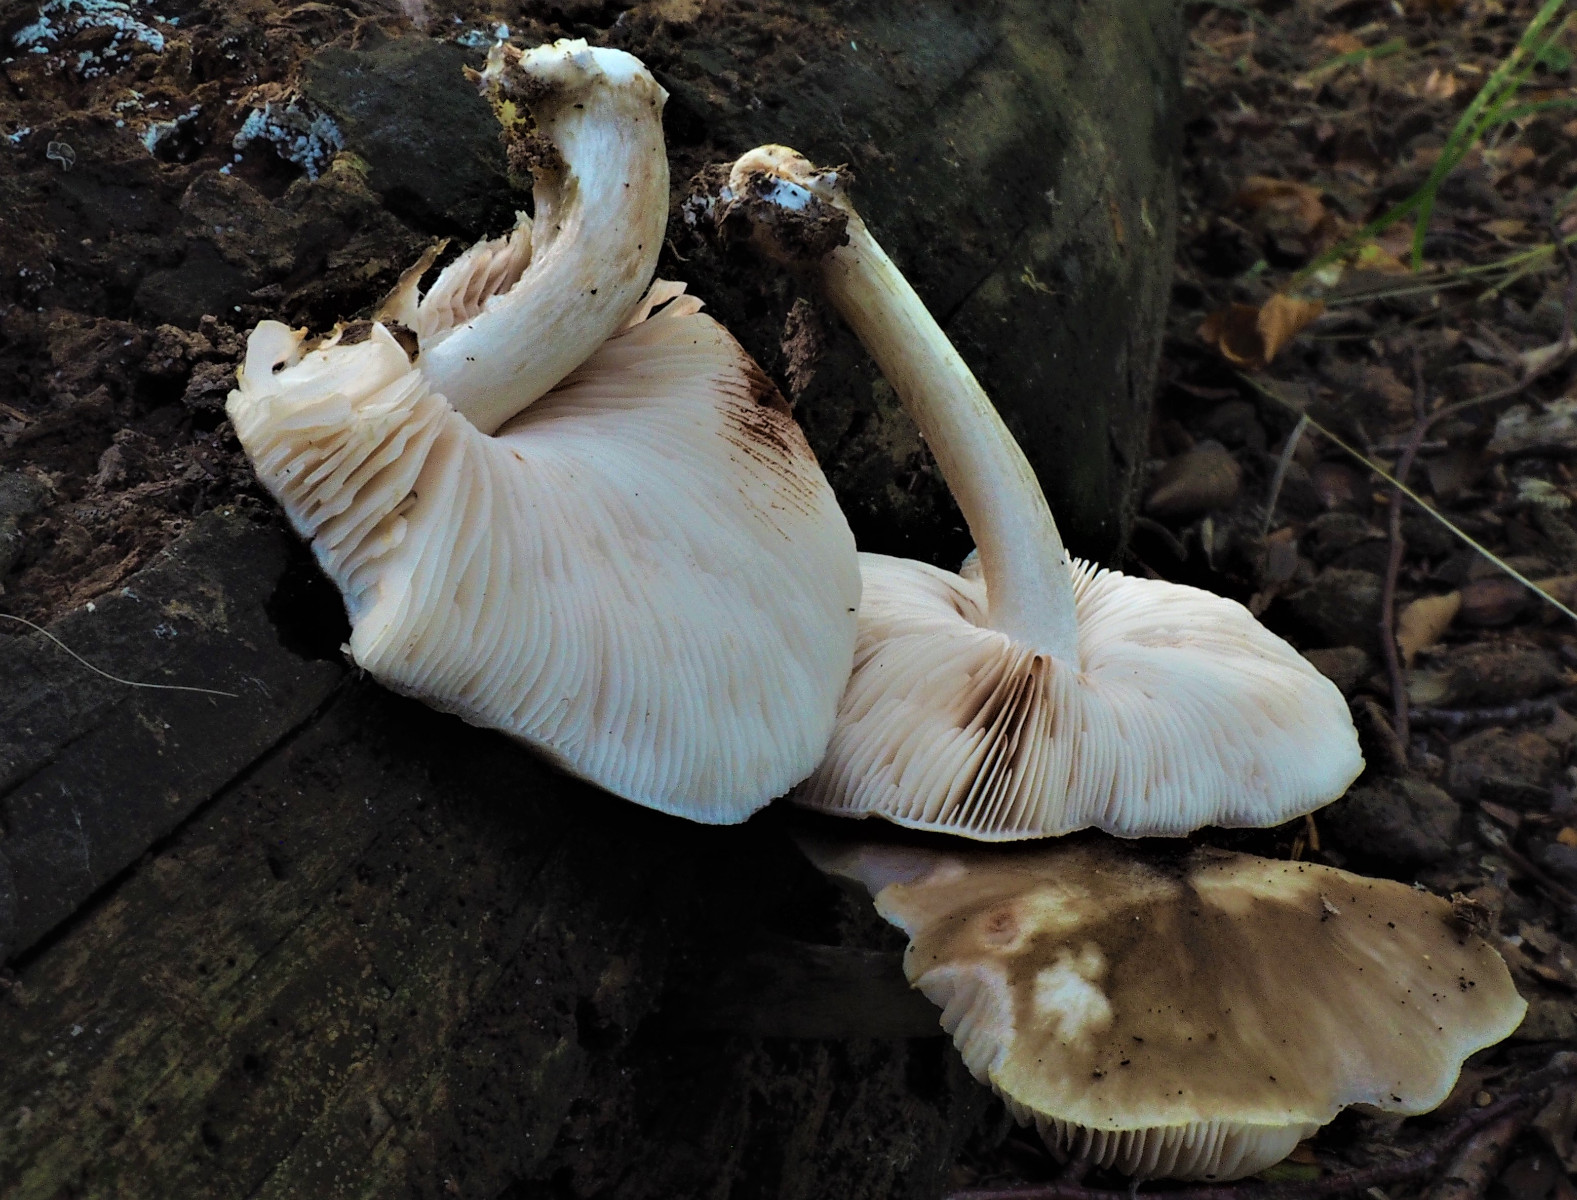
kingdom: Fungi
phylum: Basidiomycota
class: Agaricomycetes
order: Agaricales
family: Pluteaceae
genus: Pluteus
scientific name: Pluteus cervinus
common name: sodfarvet skærmhat
